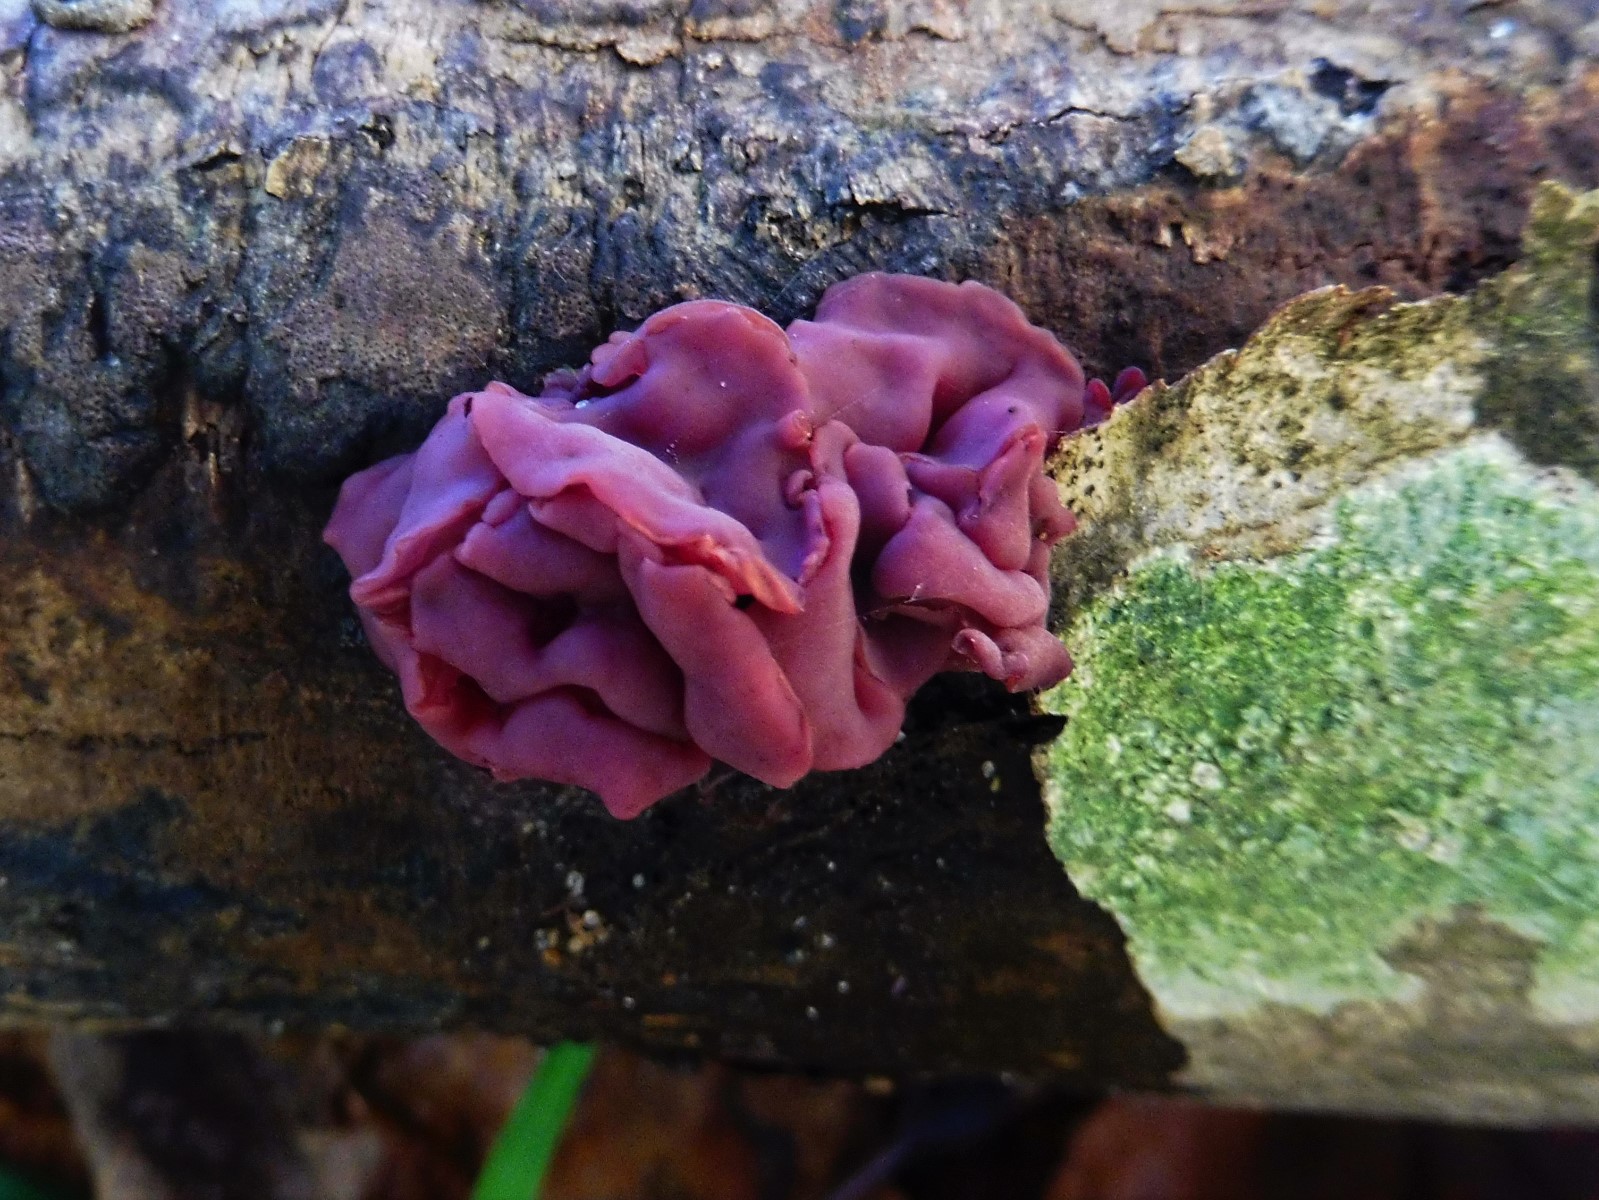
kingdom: Fungi
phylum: Ascomycota
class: Leotiomycetes
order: Helotiales
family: Gelatinodiscaceae
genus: Ascocoryne
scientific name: Ascocoryne sarcoides
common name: rødlilla sejskive
